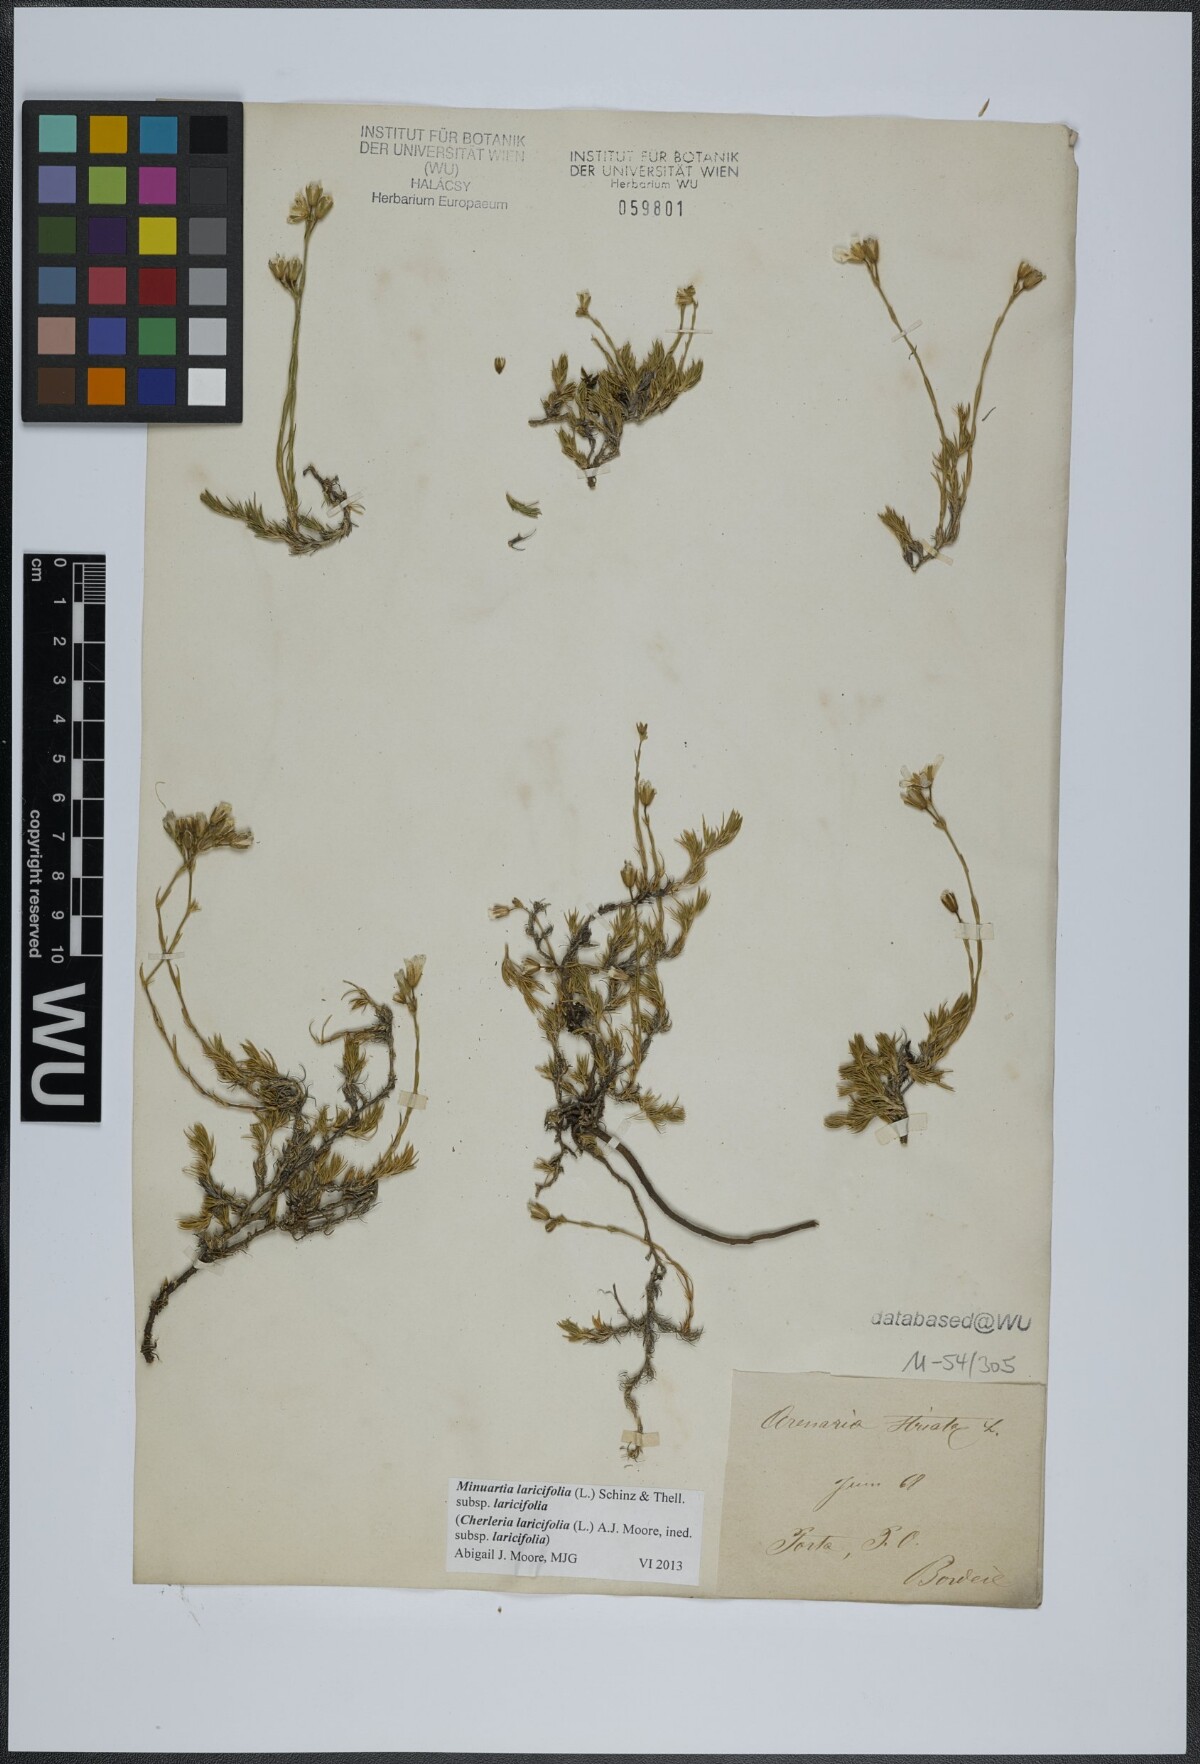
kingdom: Plantae
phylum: Tracheophyta
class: Magnoliopsida
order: Caryophyllales
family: Caryophyllaceae
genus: Cherleria
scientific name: Cherleria laricifolia
